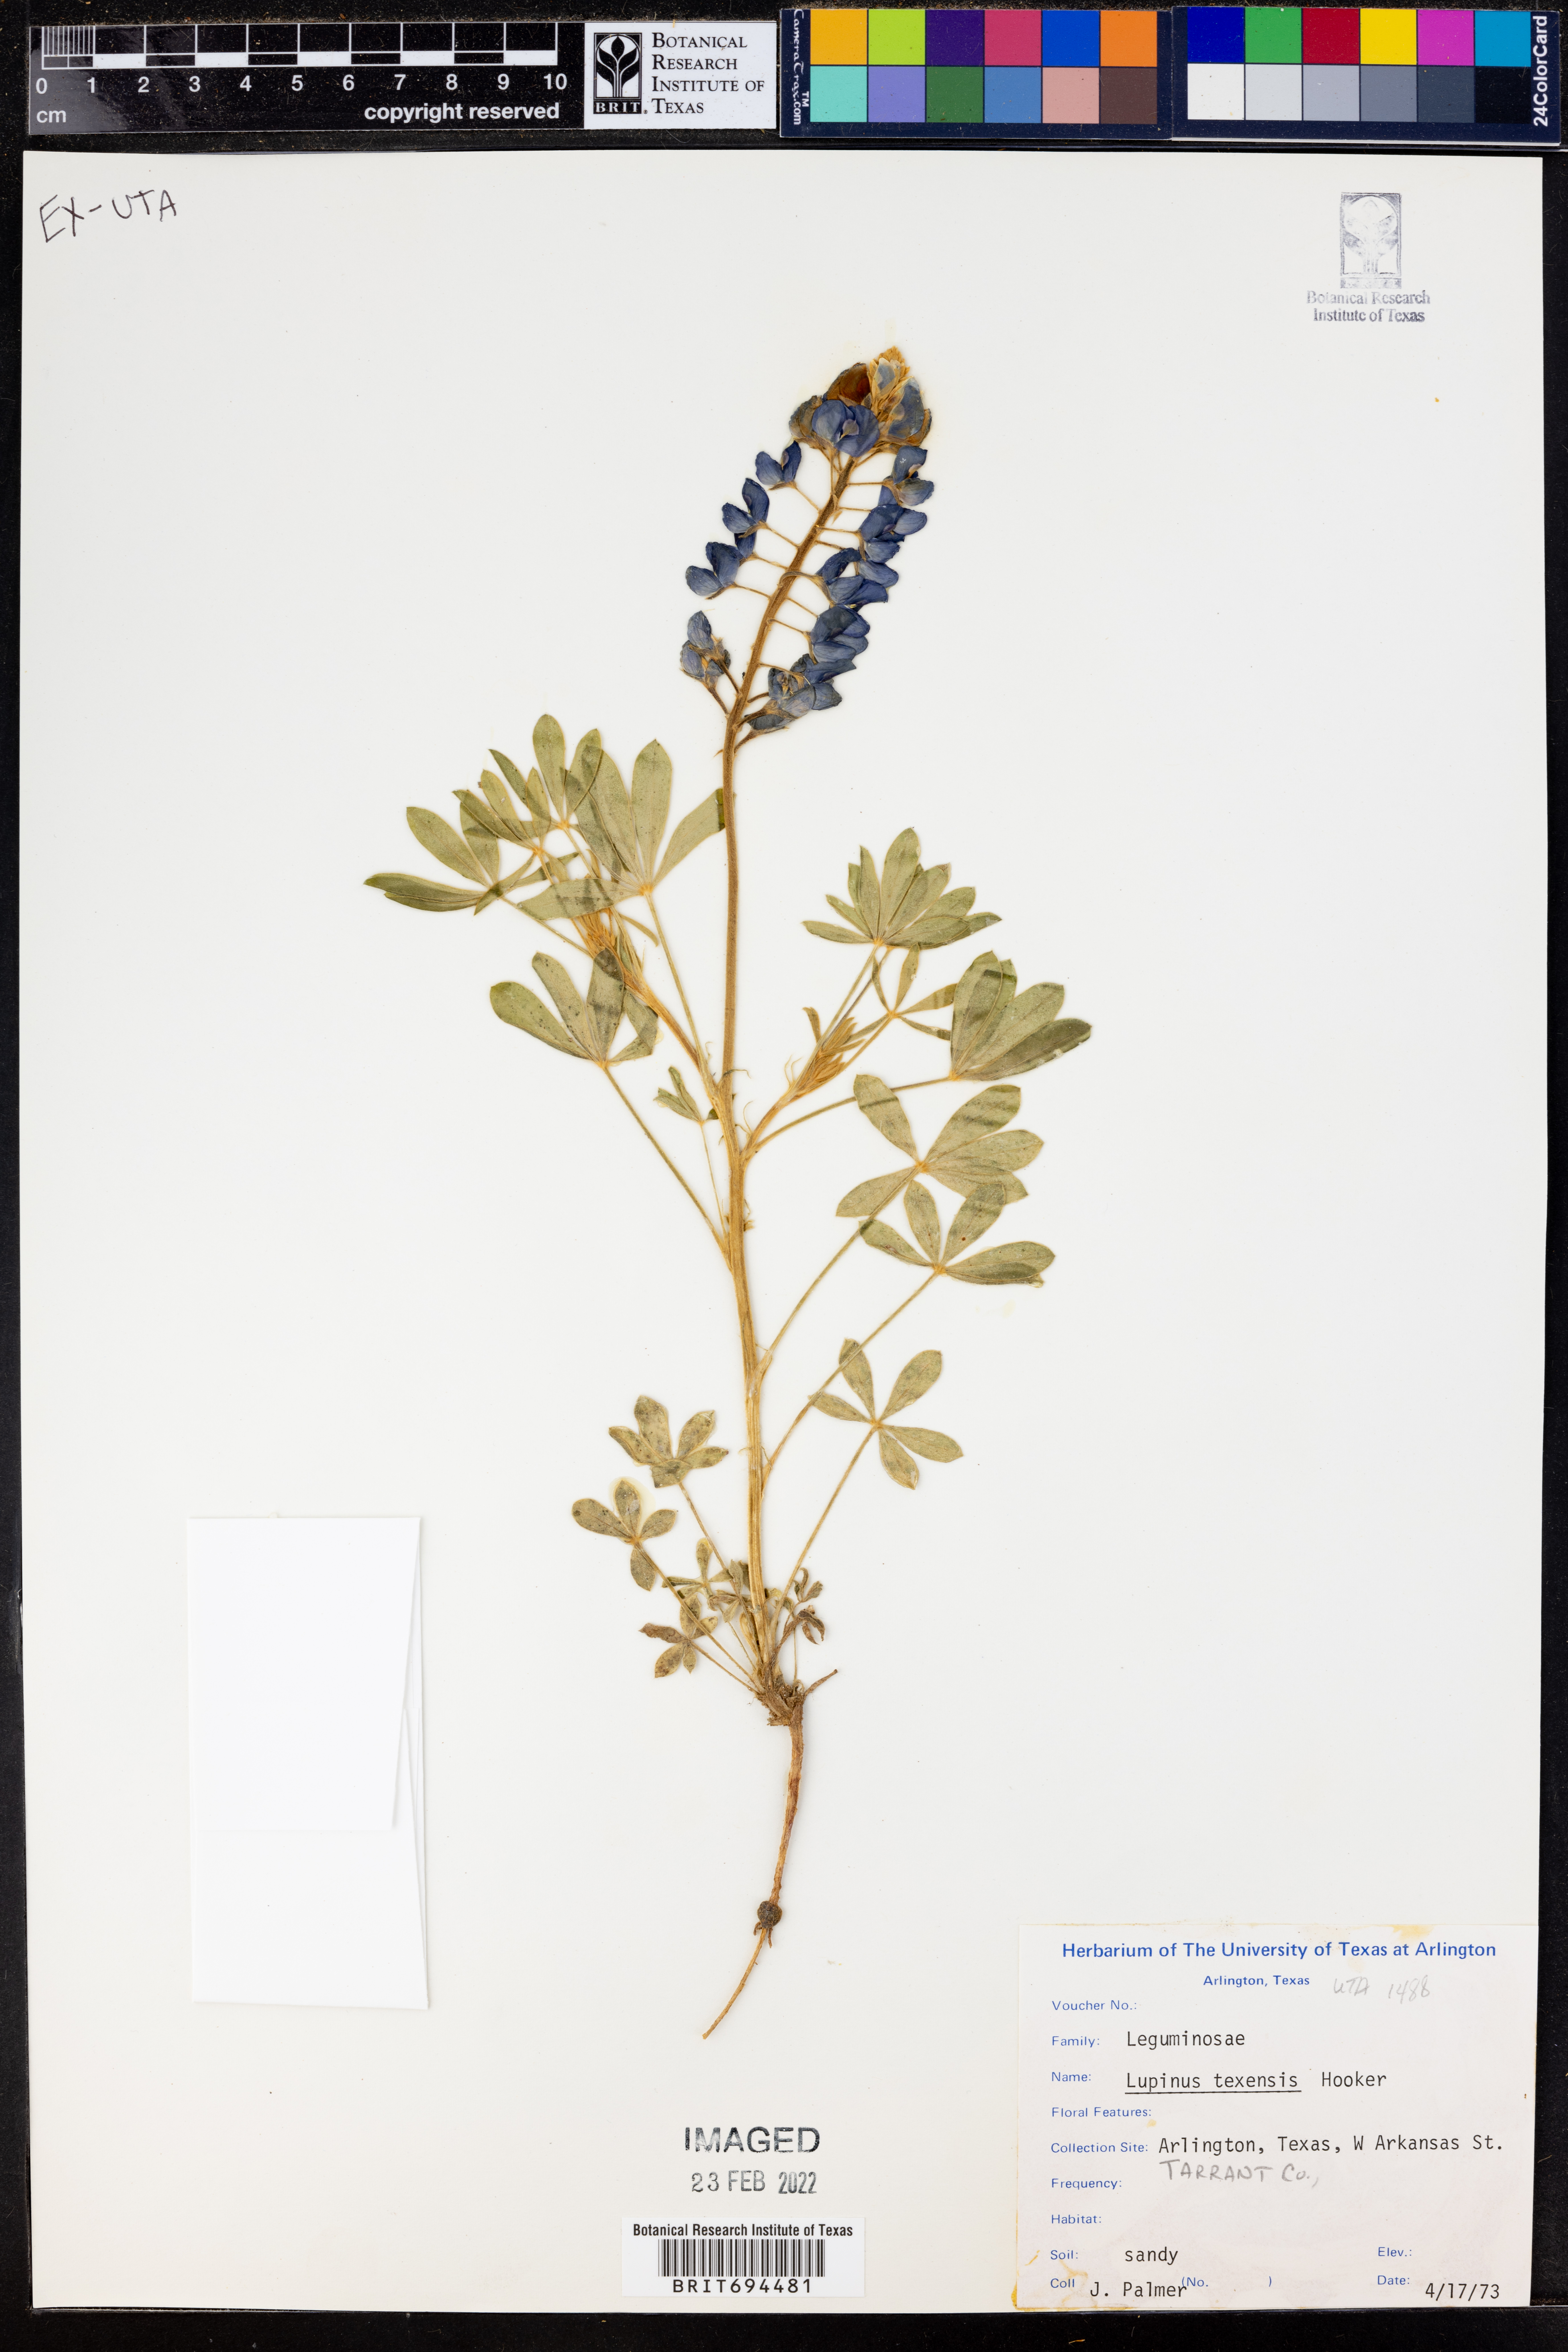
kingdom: Plantae
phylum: Tracheophyta
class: Magnoliopsida
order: Fabales
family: Fabaceae
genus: Lupinus
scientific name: Lupinus texensis
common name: Texas bluebonnet
